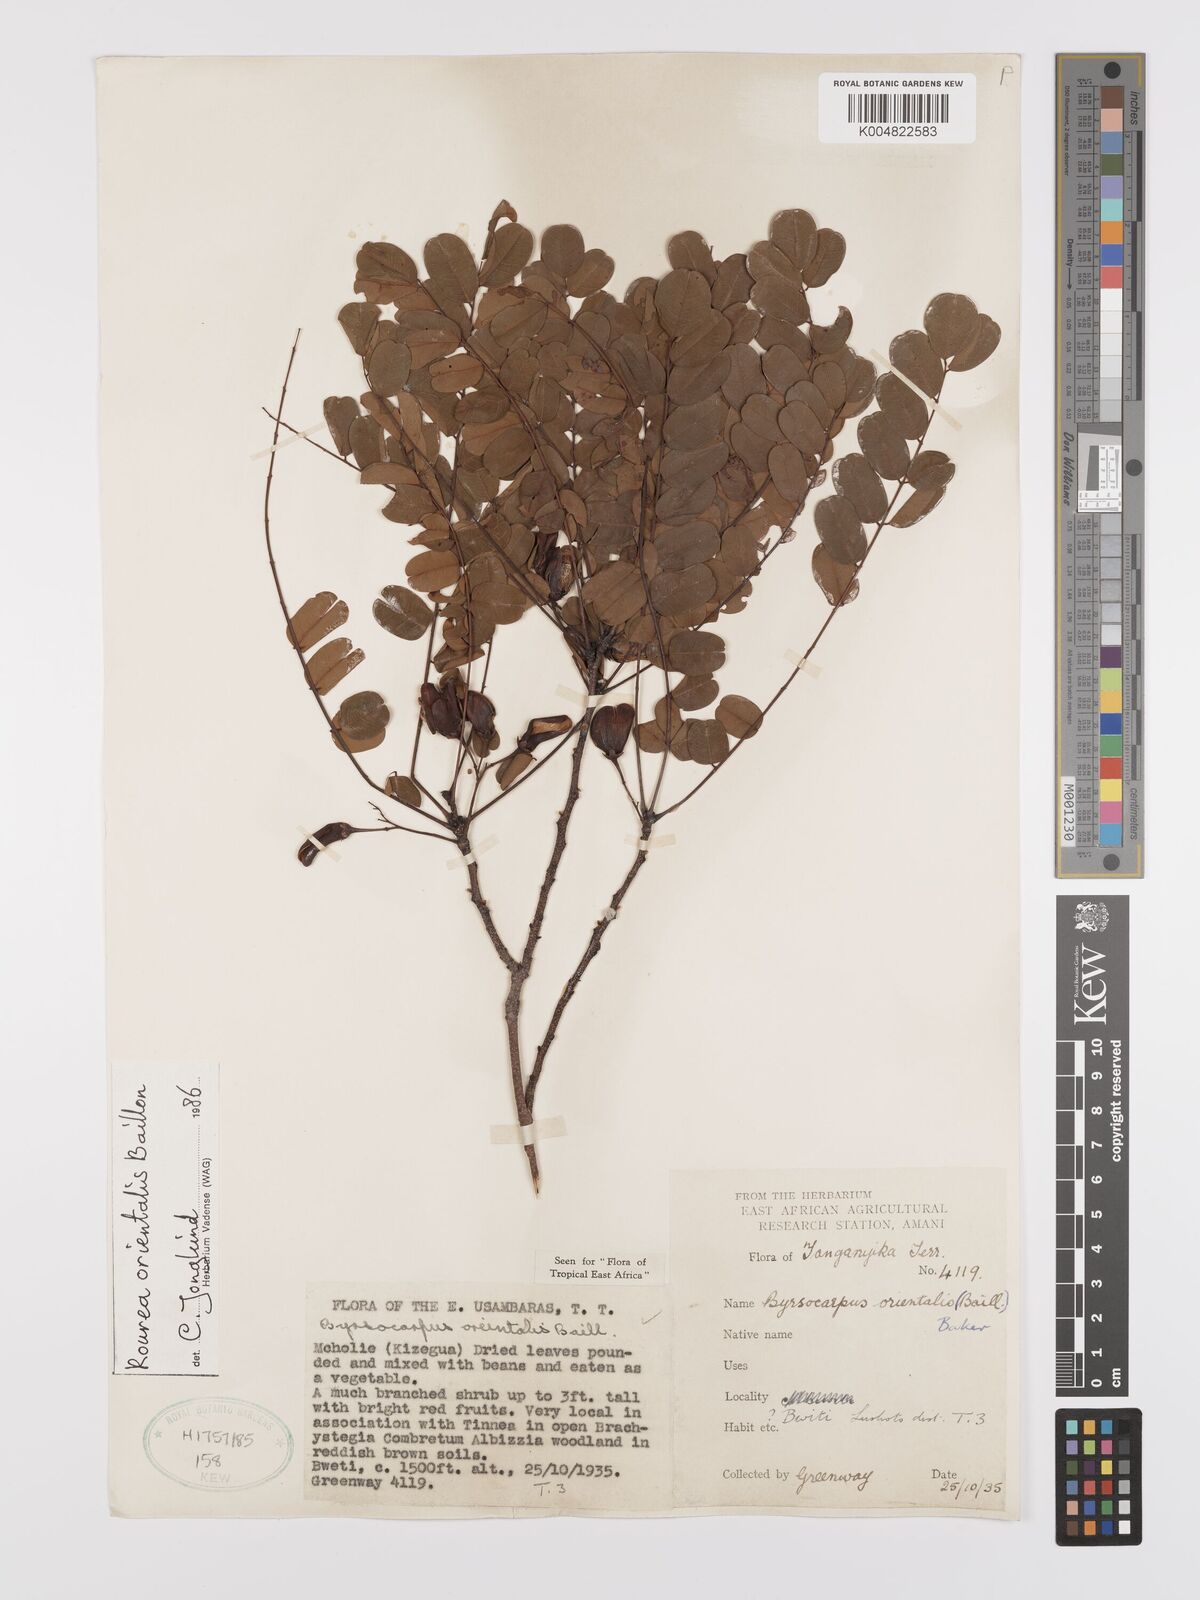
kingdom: Plantae
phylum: Tracheophyta
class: Magnoliopsida
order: Oxalidales
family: Connaraceae
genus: Rourea
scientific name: Rourea orientalis
